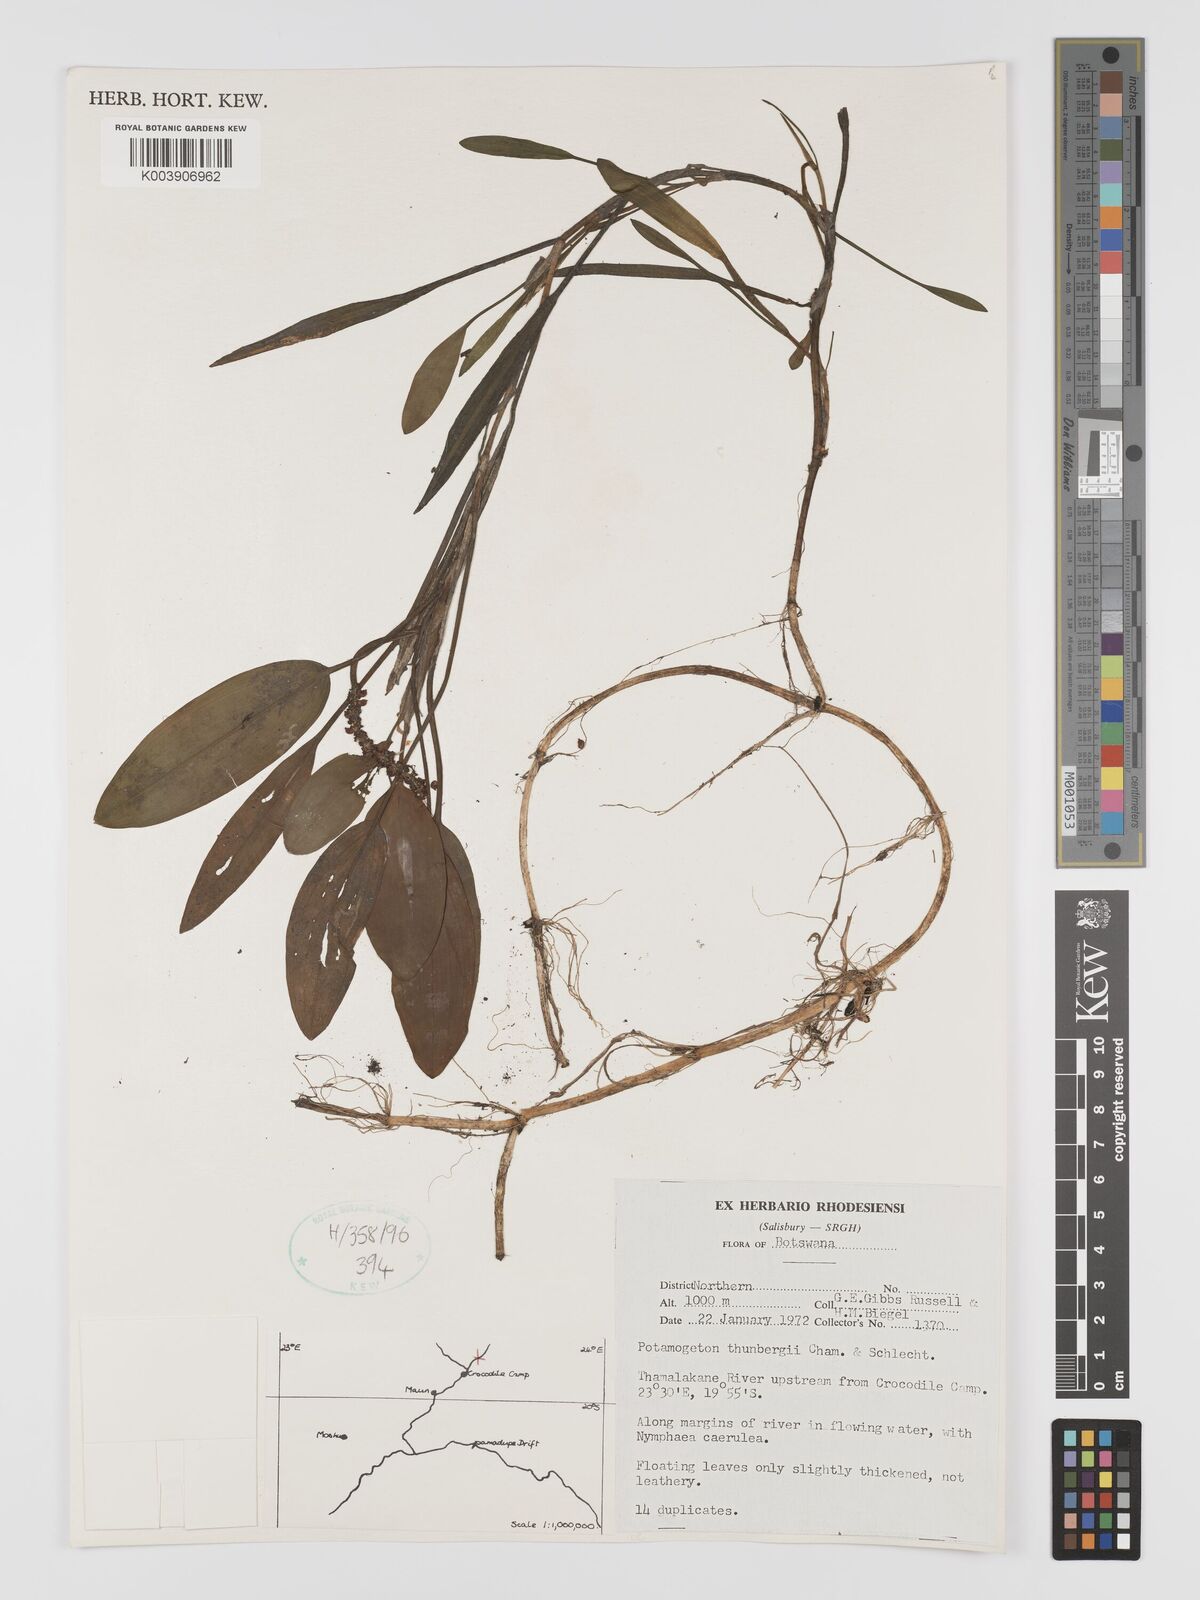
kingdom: Plantae
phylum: Tracheophyta
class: Liliopsida
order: Alismatales
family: Potamogetonaceae
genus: Potamogeton
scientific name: Potamogeton nodosus
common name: Loddon pondweed
